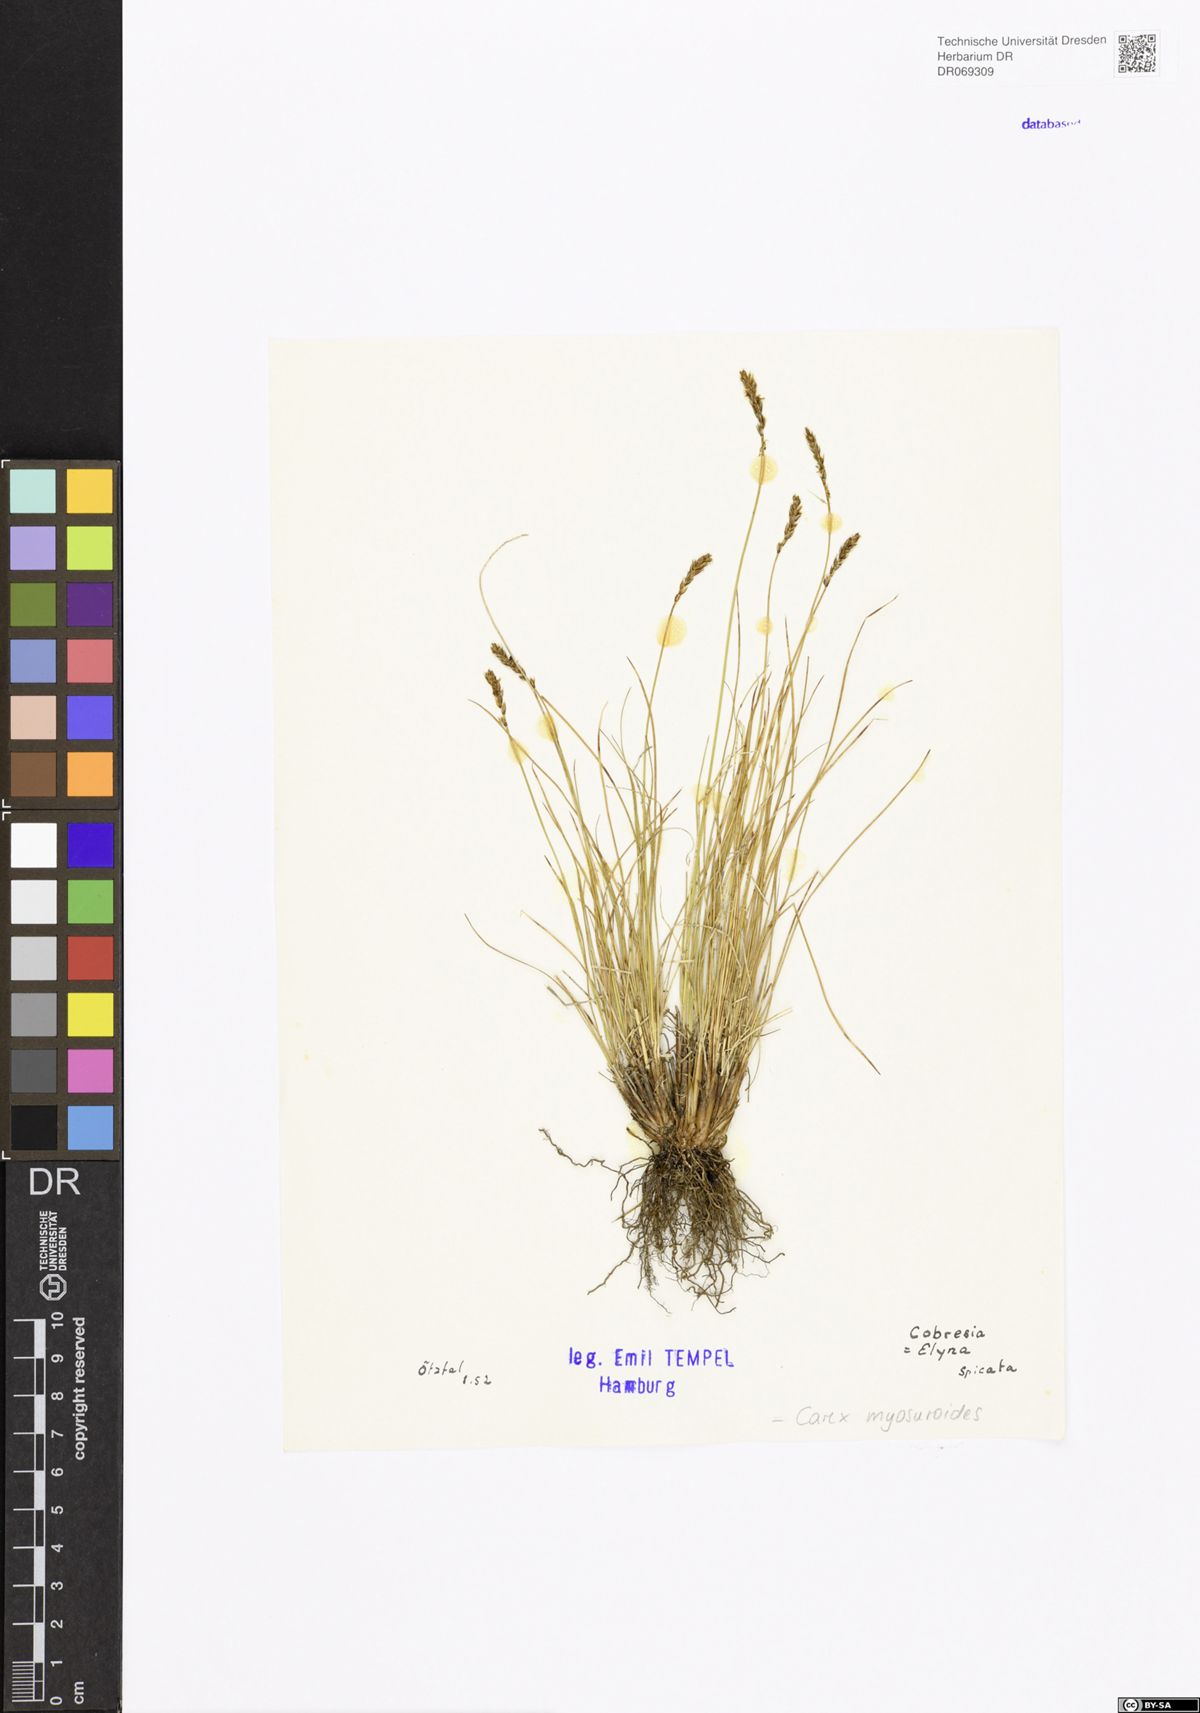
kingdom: Plantae
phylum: Tracheophyta
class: Liliopsida
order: Poales
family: Cyperaceae
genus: Carex
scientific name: Carex myosuroides
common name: Bellard's bog sedge
